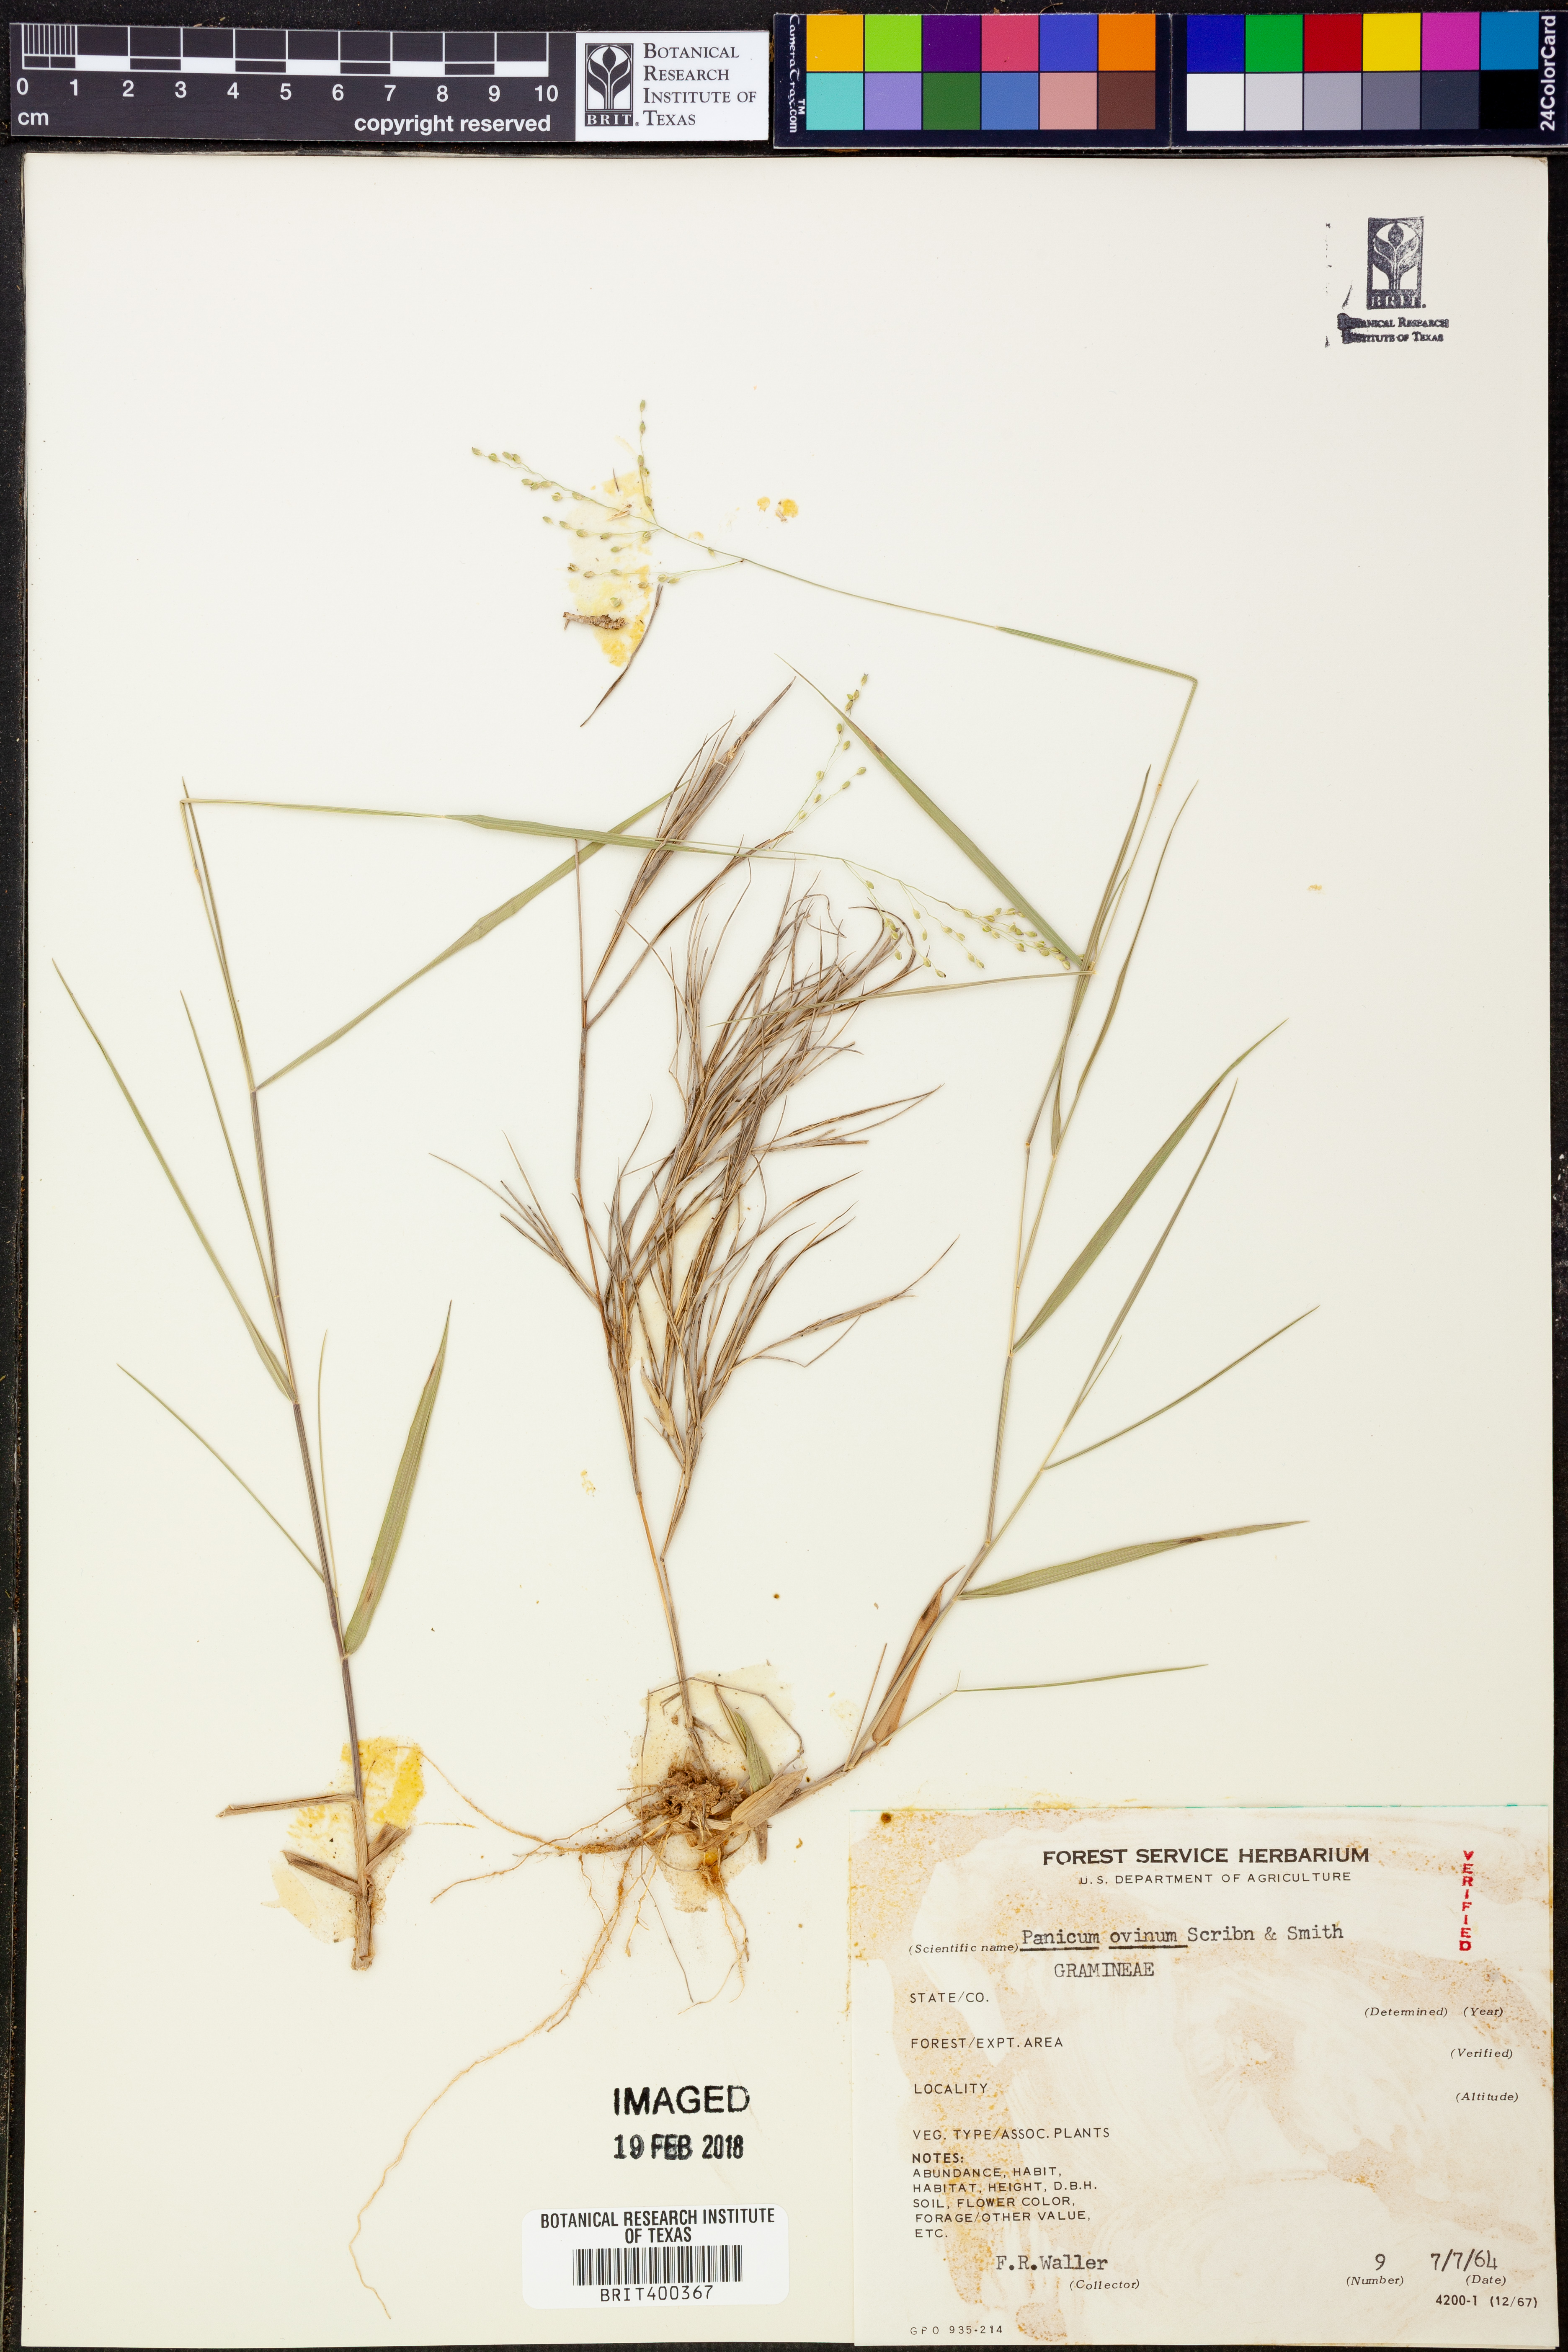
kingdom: Plantae
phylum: Tracheophyta
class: Liliopsida
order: Poales
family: Poaceae
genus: Dichanthelium
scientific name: Dichanthelium ovinum
